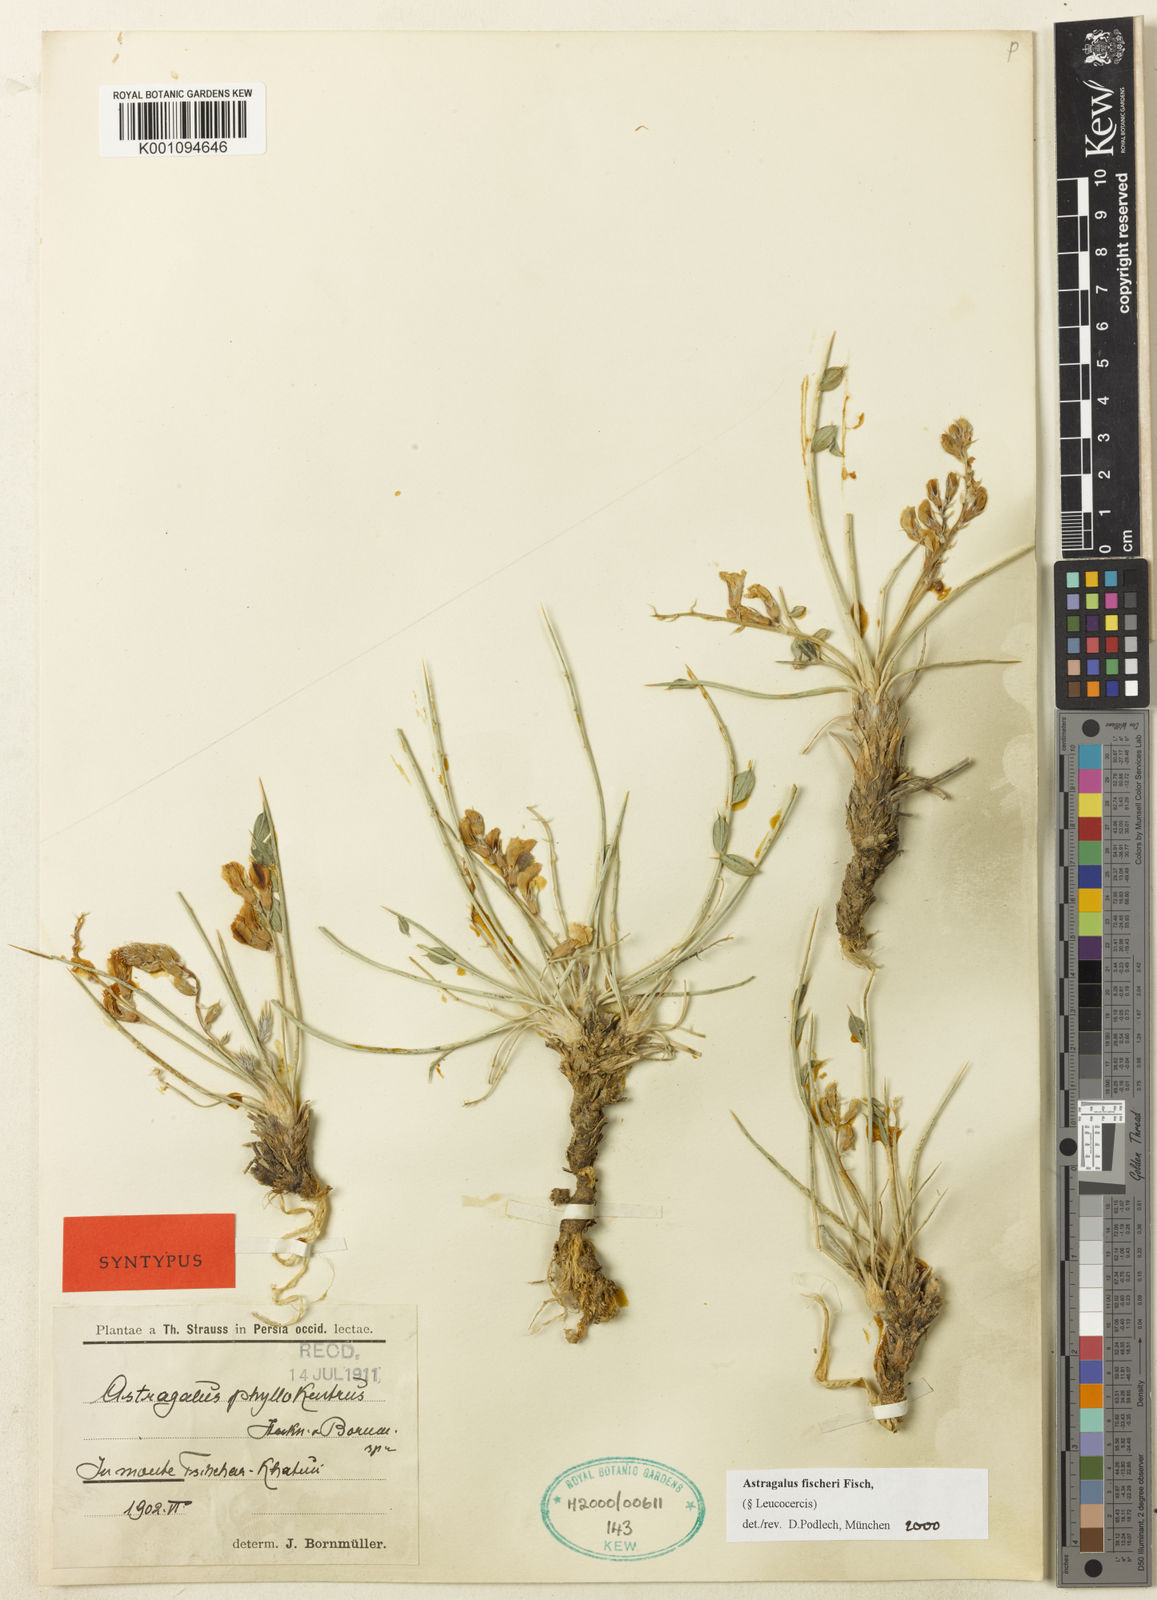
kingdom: Plantae
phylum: Tracheophyta
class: Magnoliopsida
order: Fabales
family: Fabaceae
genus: Astragalus
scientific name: Astragalus
